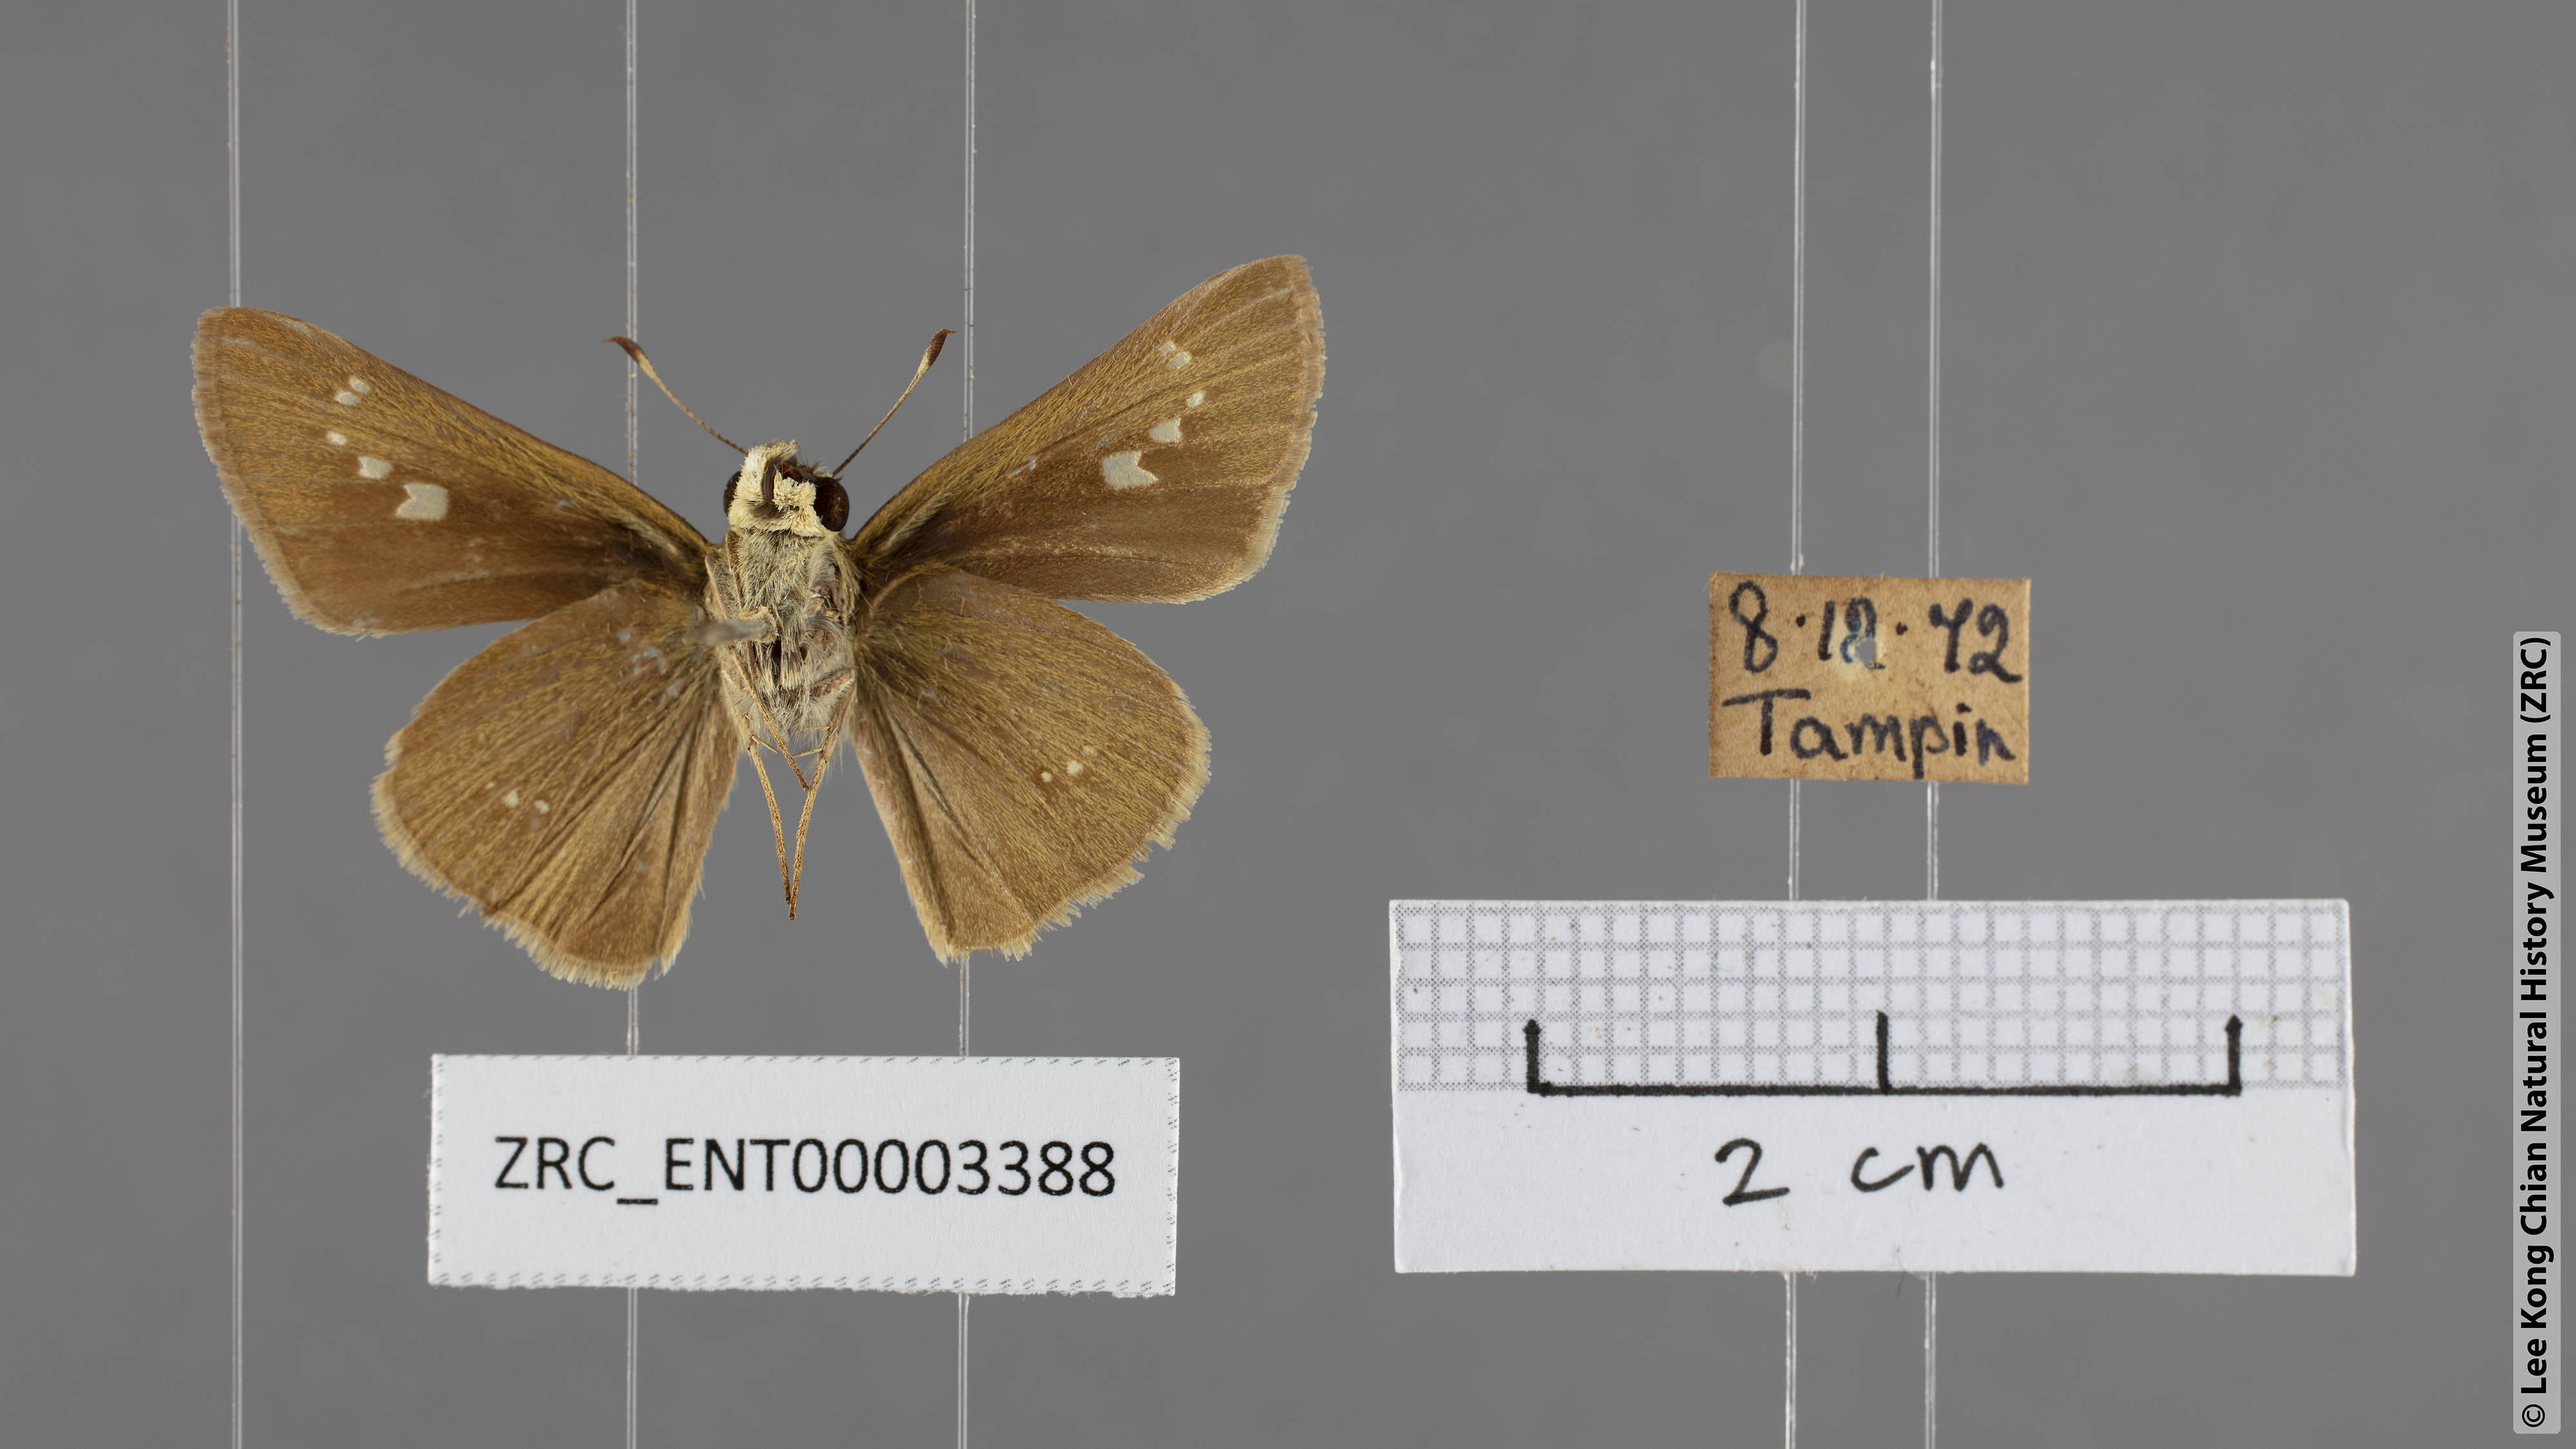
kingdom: Animalia
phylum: Arthropoda
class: Insecta
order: Lepidoptera
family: Hesperiidae
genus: Parnara
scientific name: Parnara apostata
